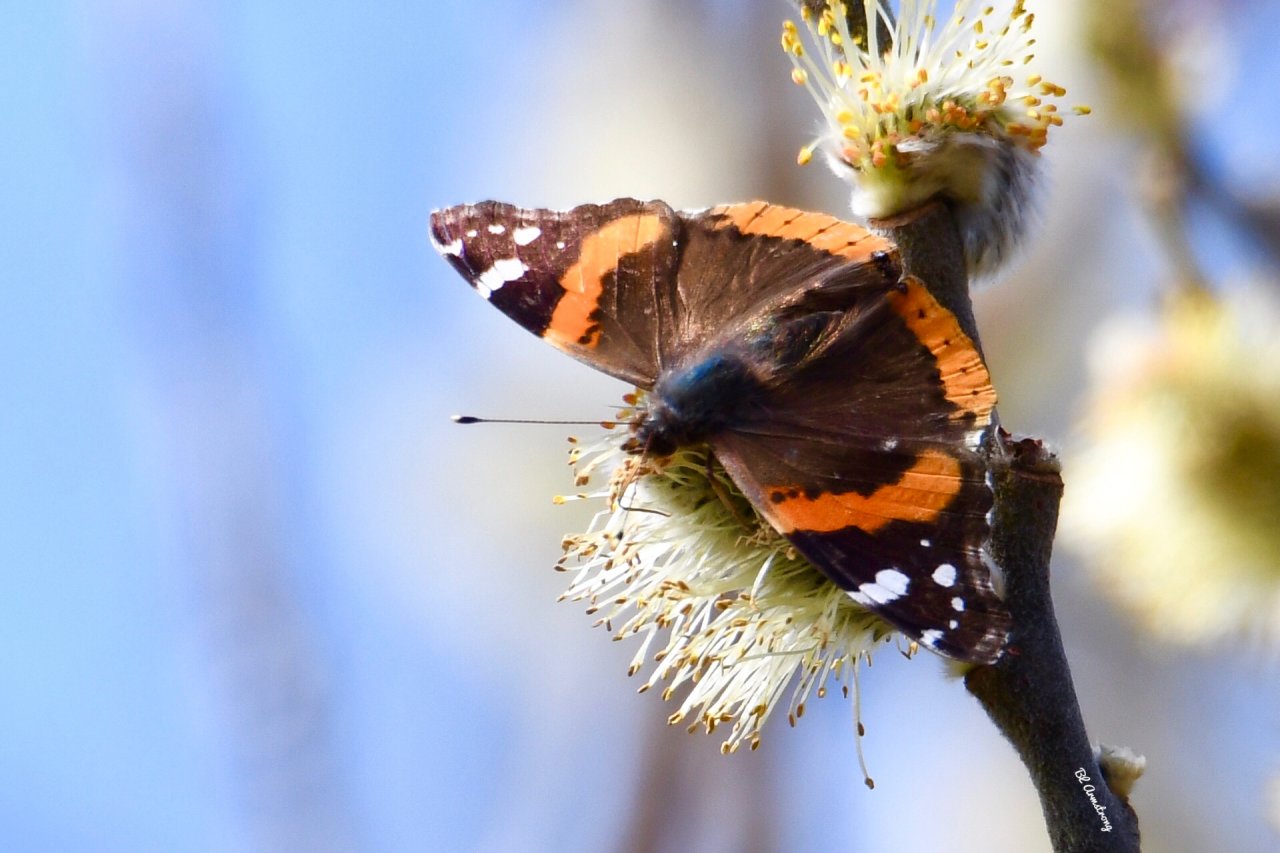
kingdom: Animalia
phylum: Arthropoda
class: Insecta
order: Lepidoptera
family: Nymphalidae
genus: Vanessa
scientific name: Vanessa atalanta
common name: Red Admiral
